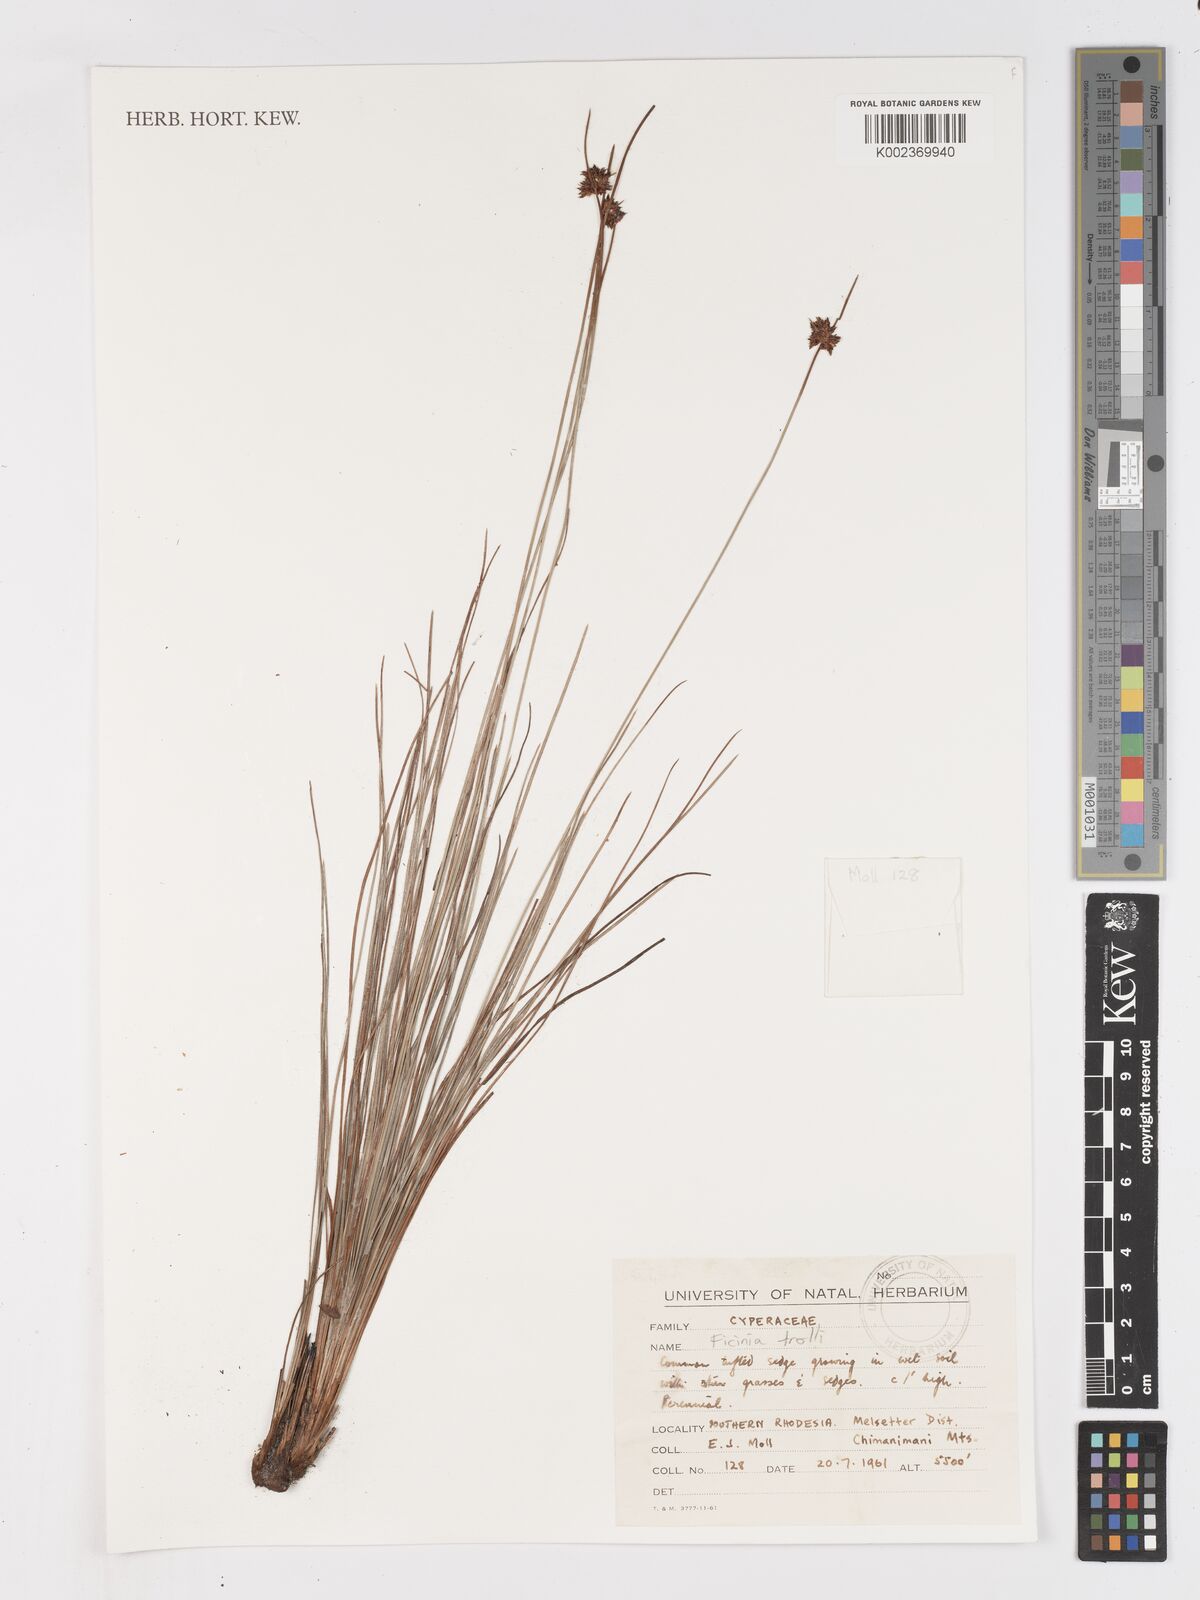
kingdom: Plantae
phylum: Tracheophyta
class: Liliopsida
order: Poales
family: Cyperaceae
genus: Ficinia
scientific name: Ficinia trollii
